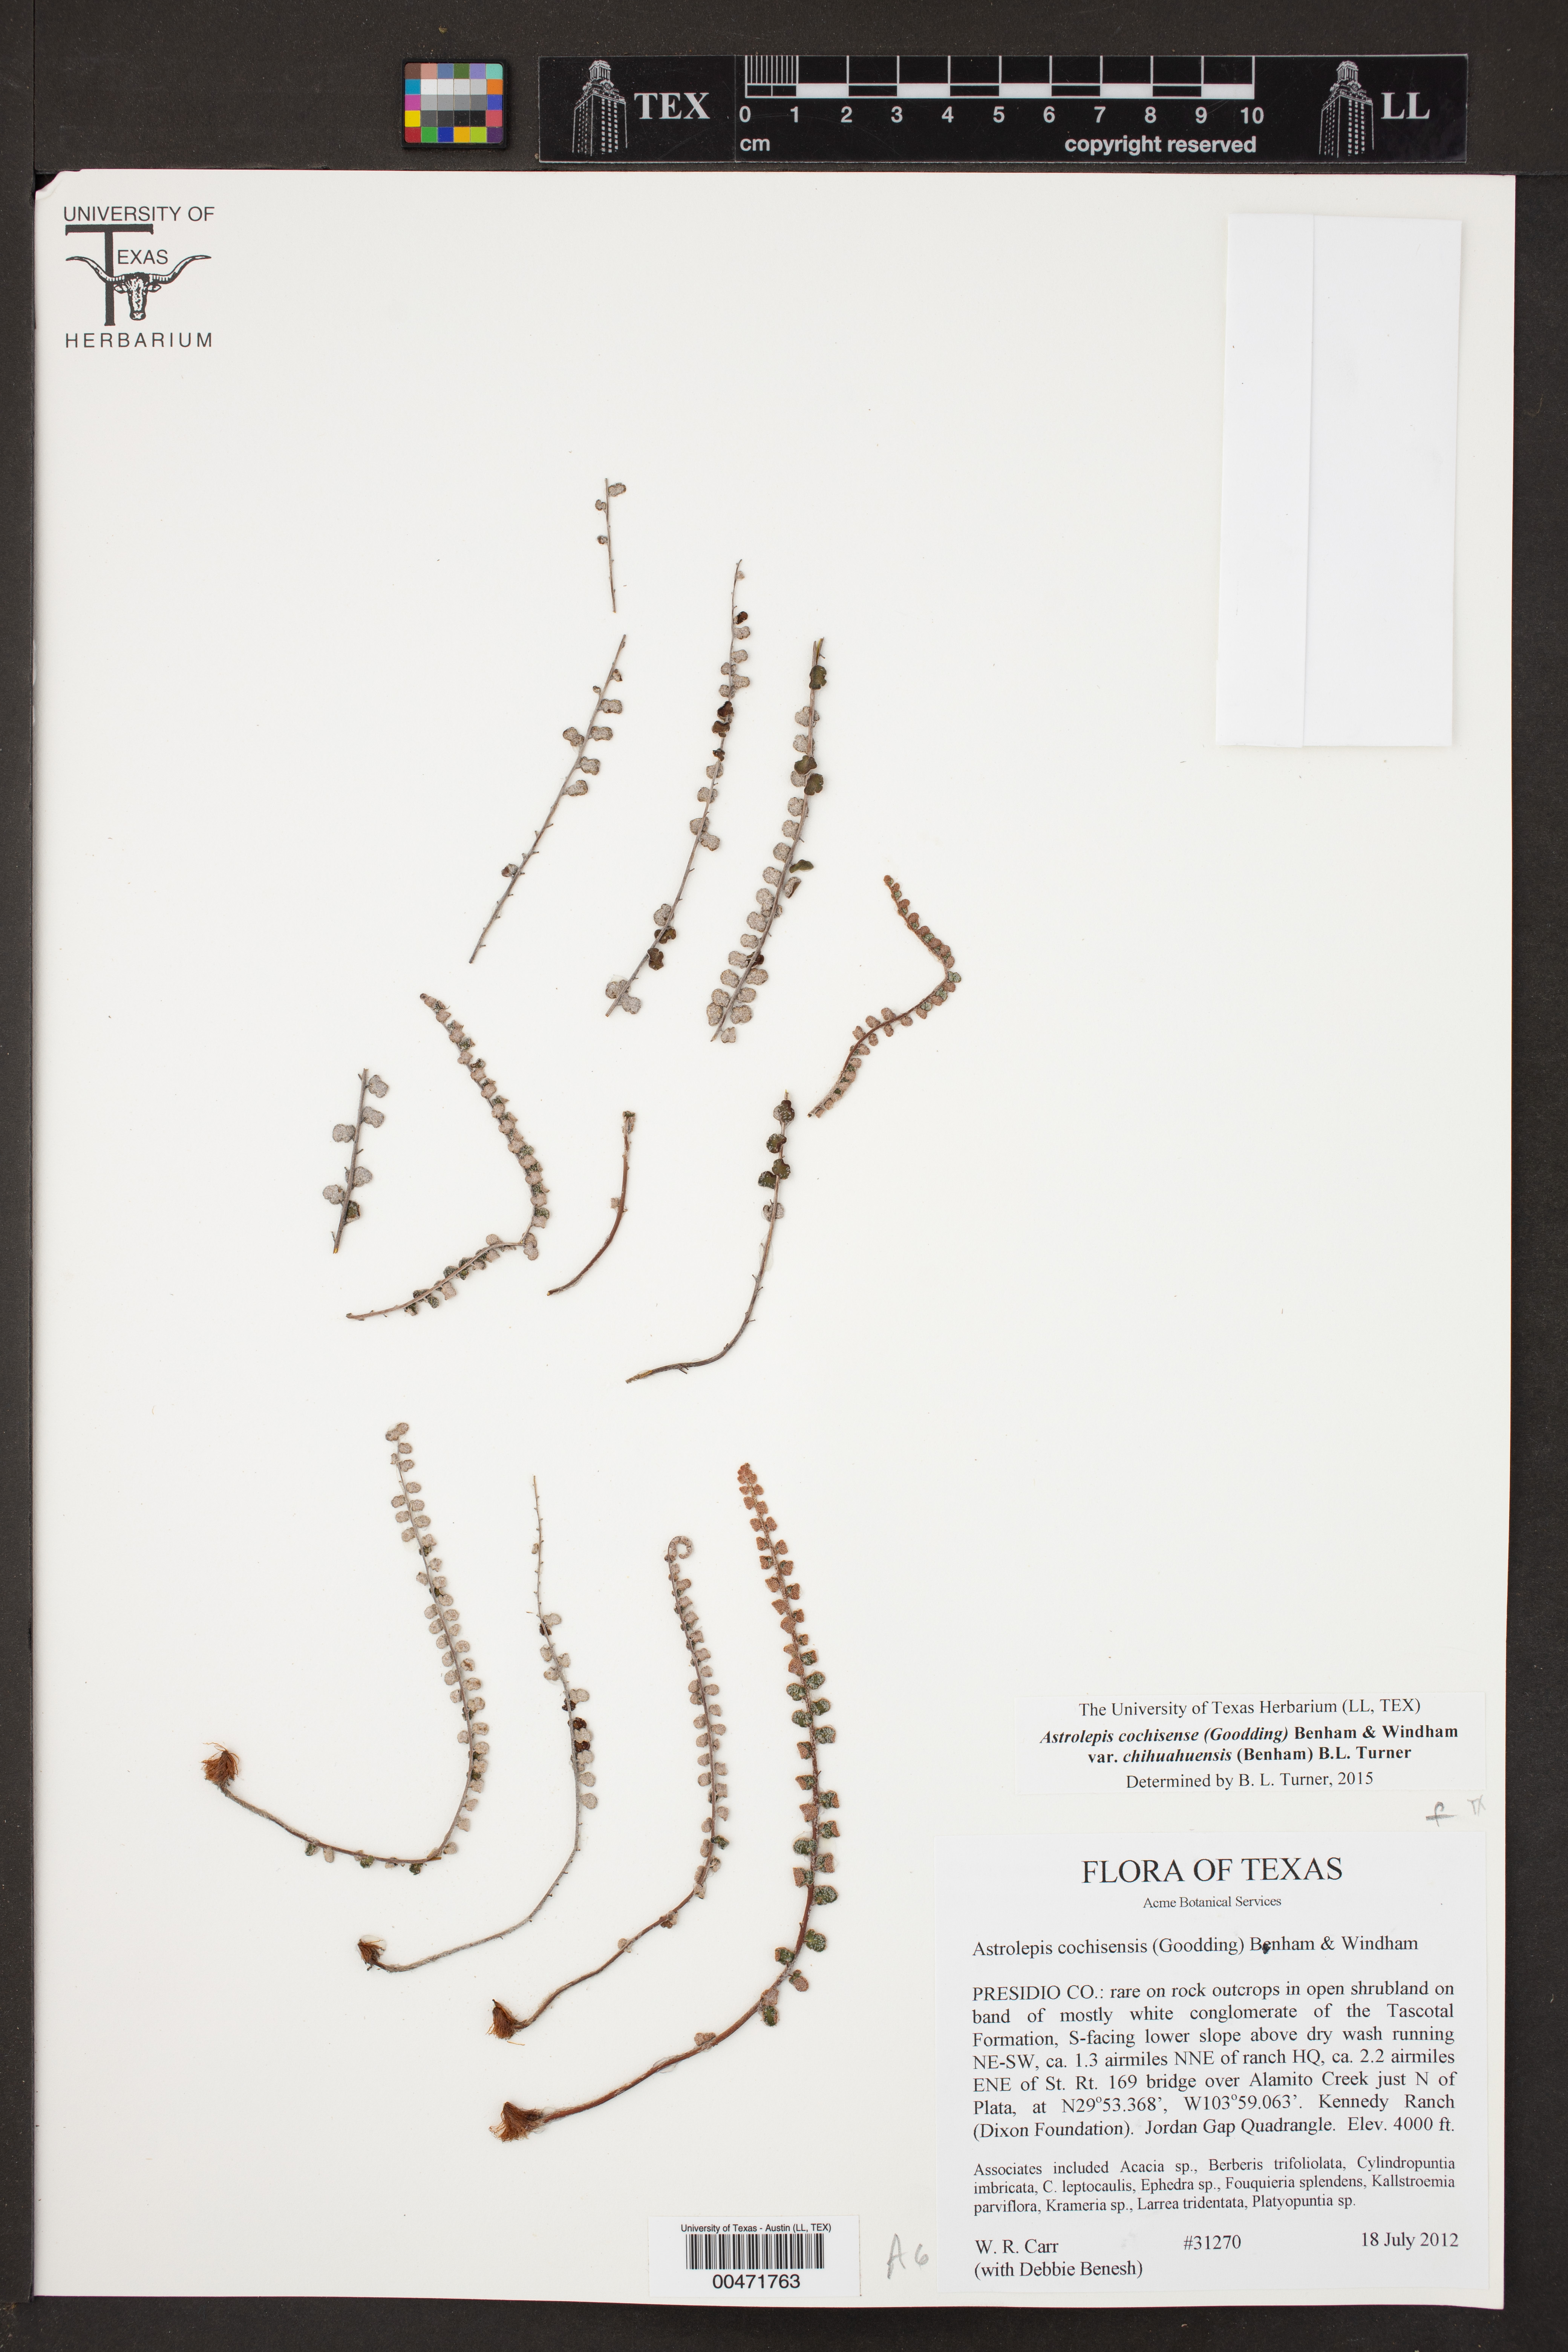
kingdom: Plantae
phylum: Tracheophyta
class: Polypodiopsida
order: Polypodiales
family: Pteridaceae
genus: Astrolepis
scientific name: Astrolepis cochisensis
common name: Scaly cloak fern
